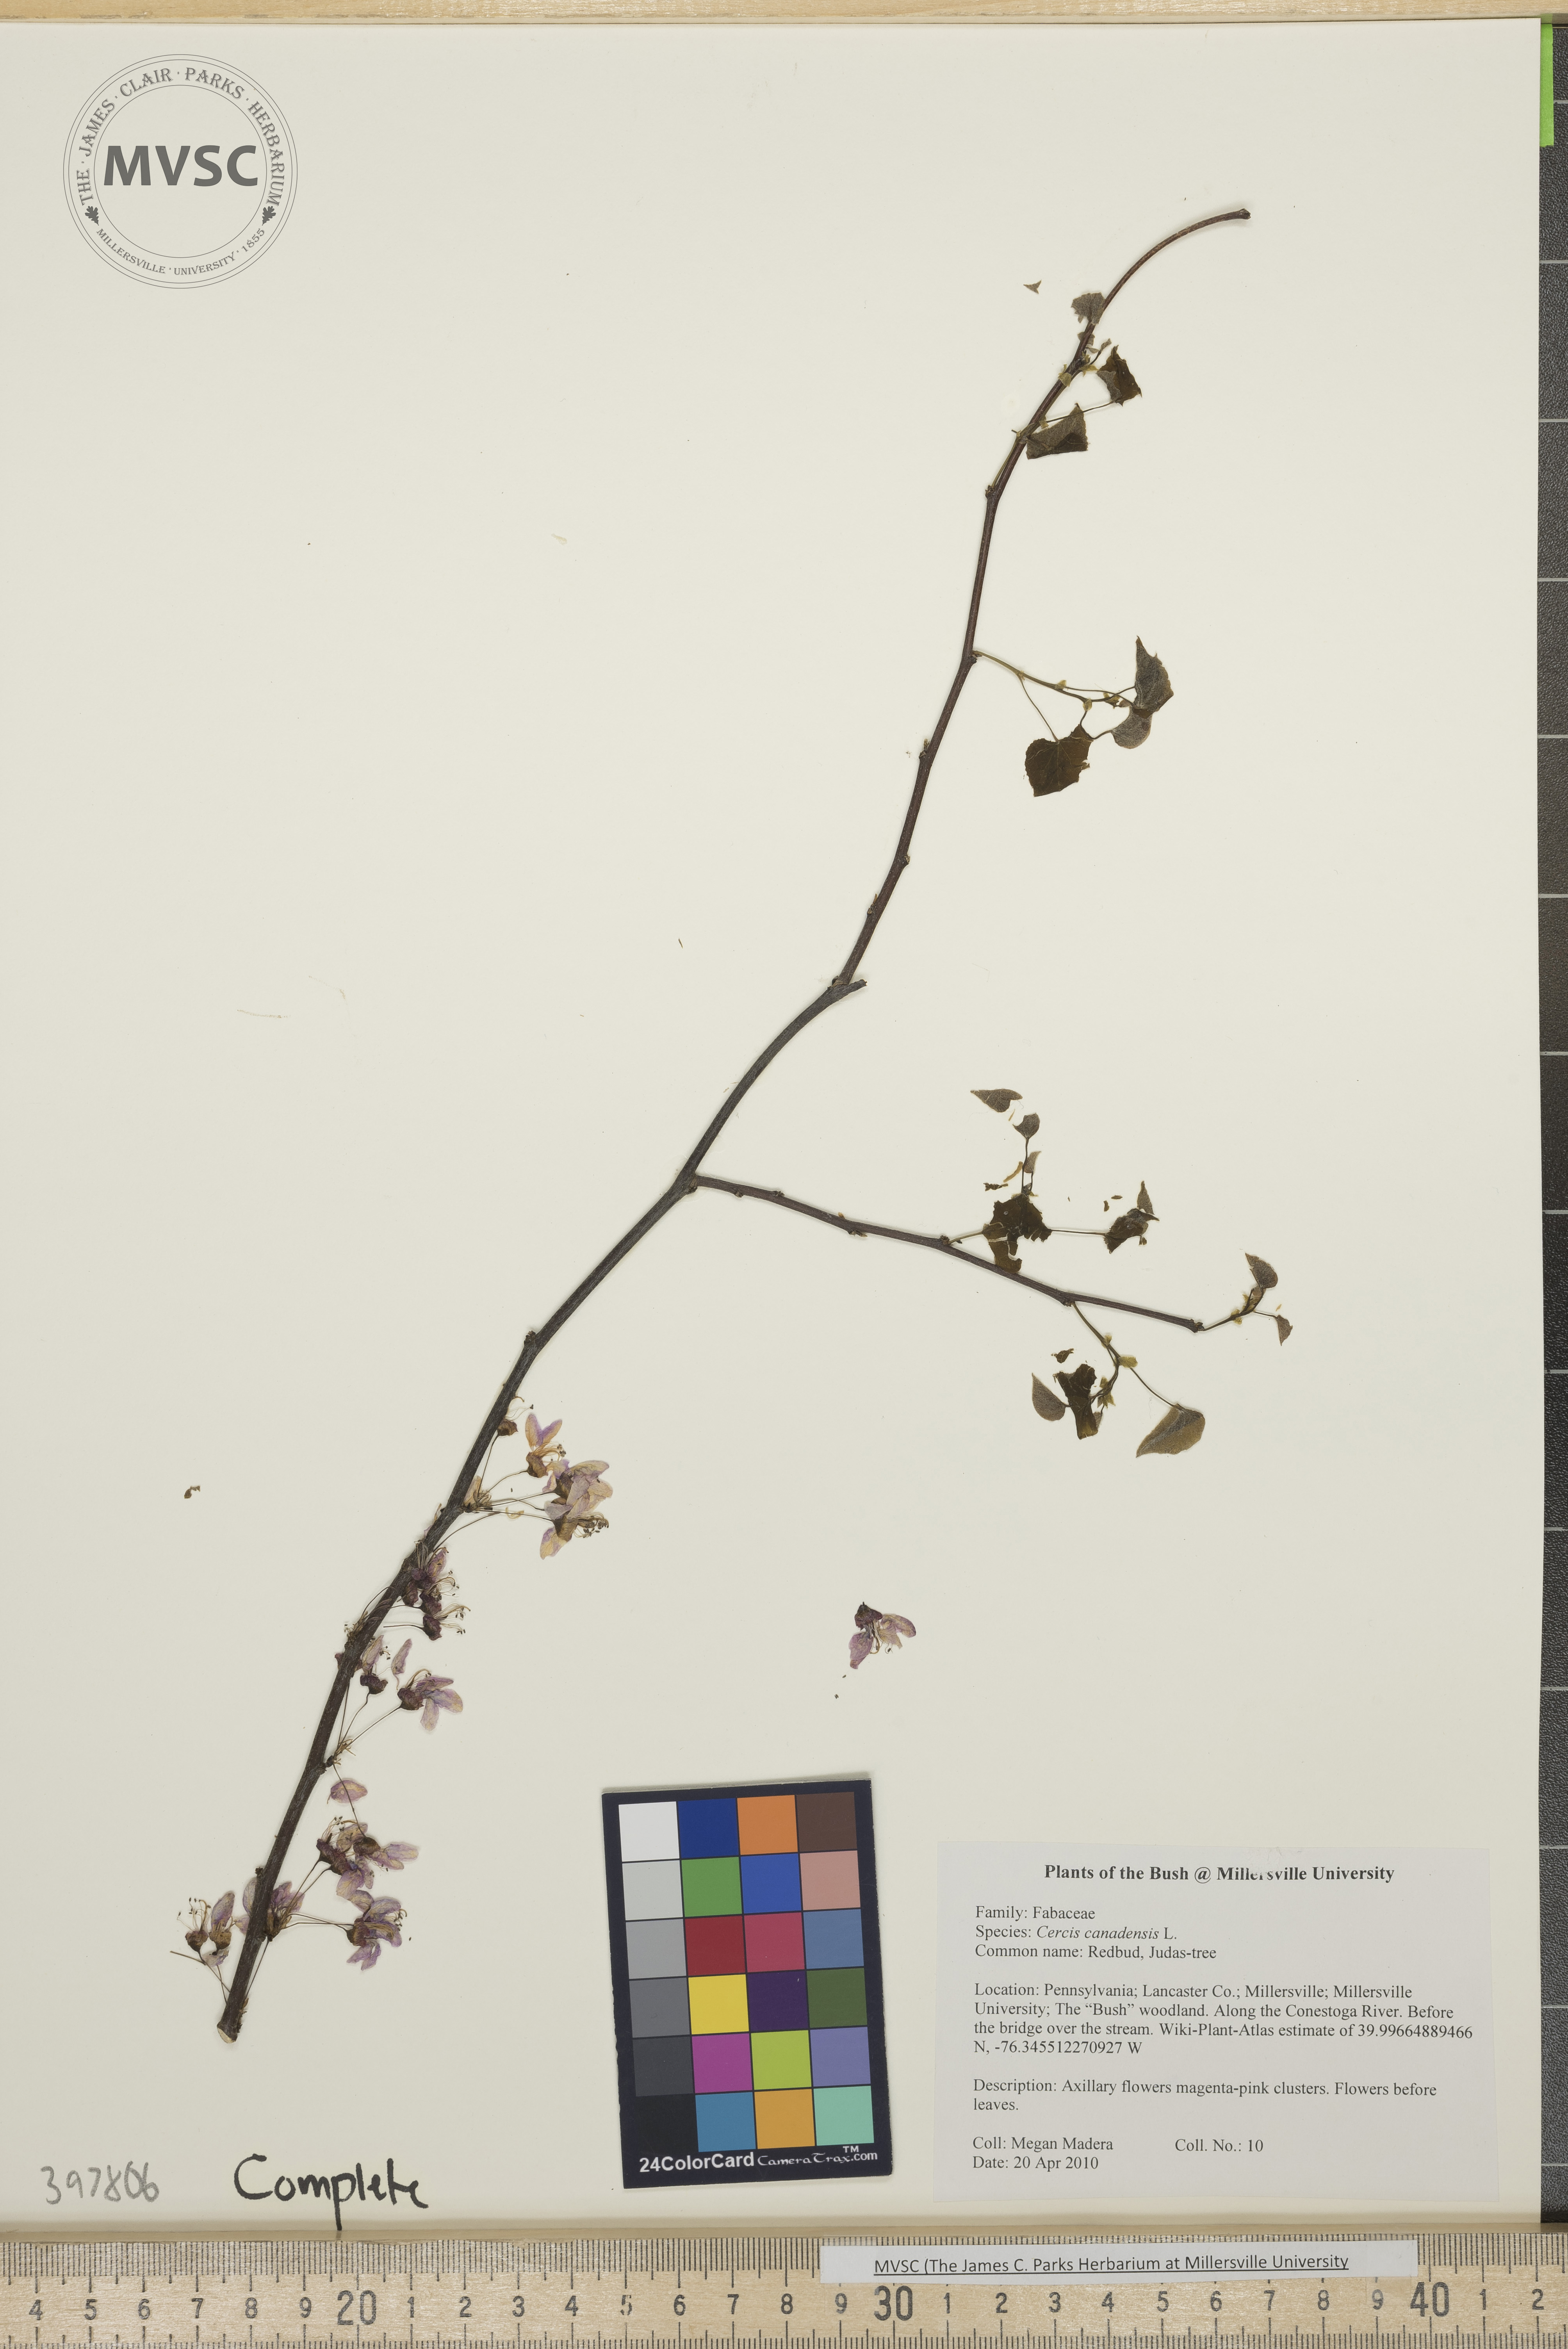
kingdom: Plantae
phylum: Tracheophyta
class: Magnoliopsida
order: Fabales
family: Fabaceae
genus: Cercis
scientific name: Cercis canadensis
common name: Redbud
